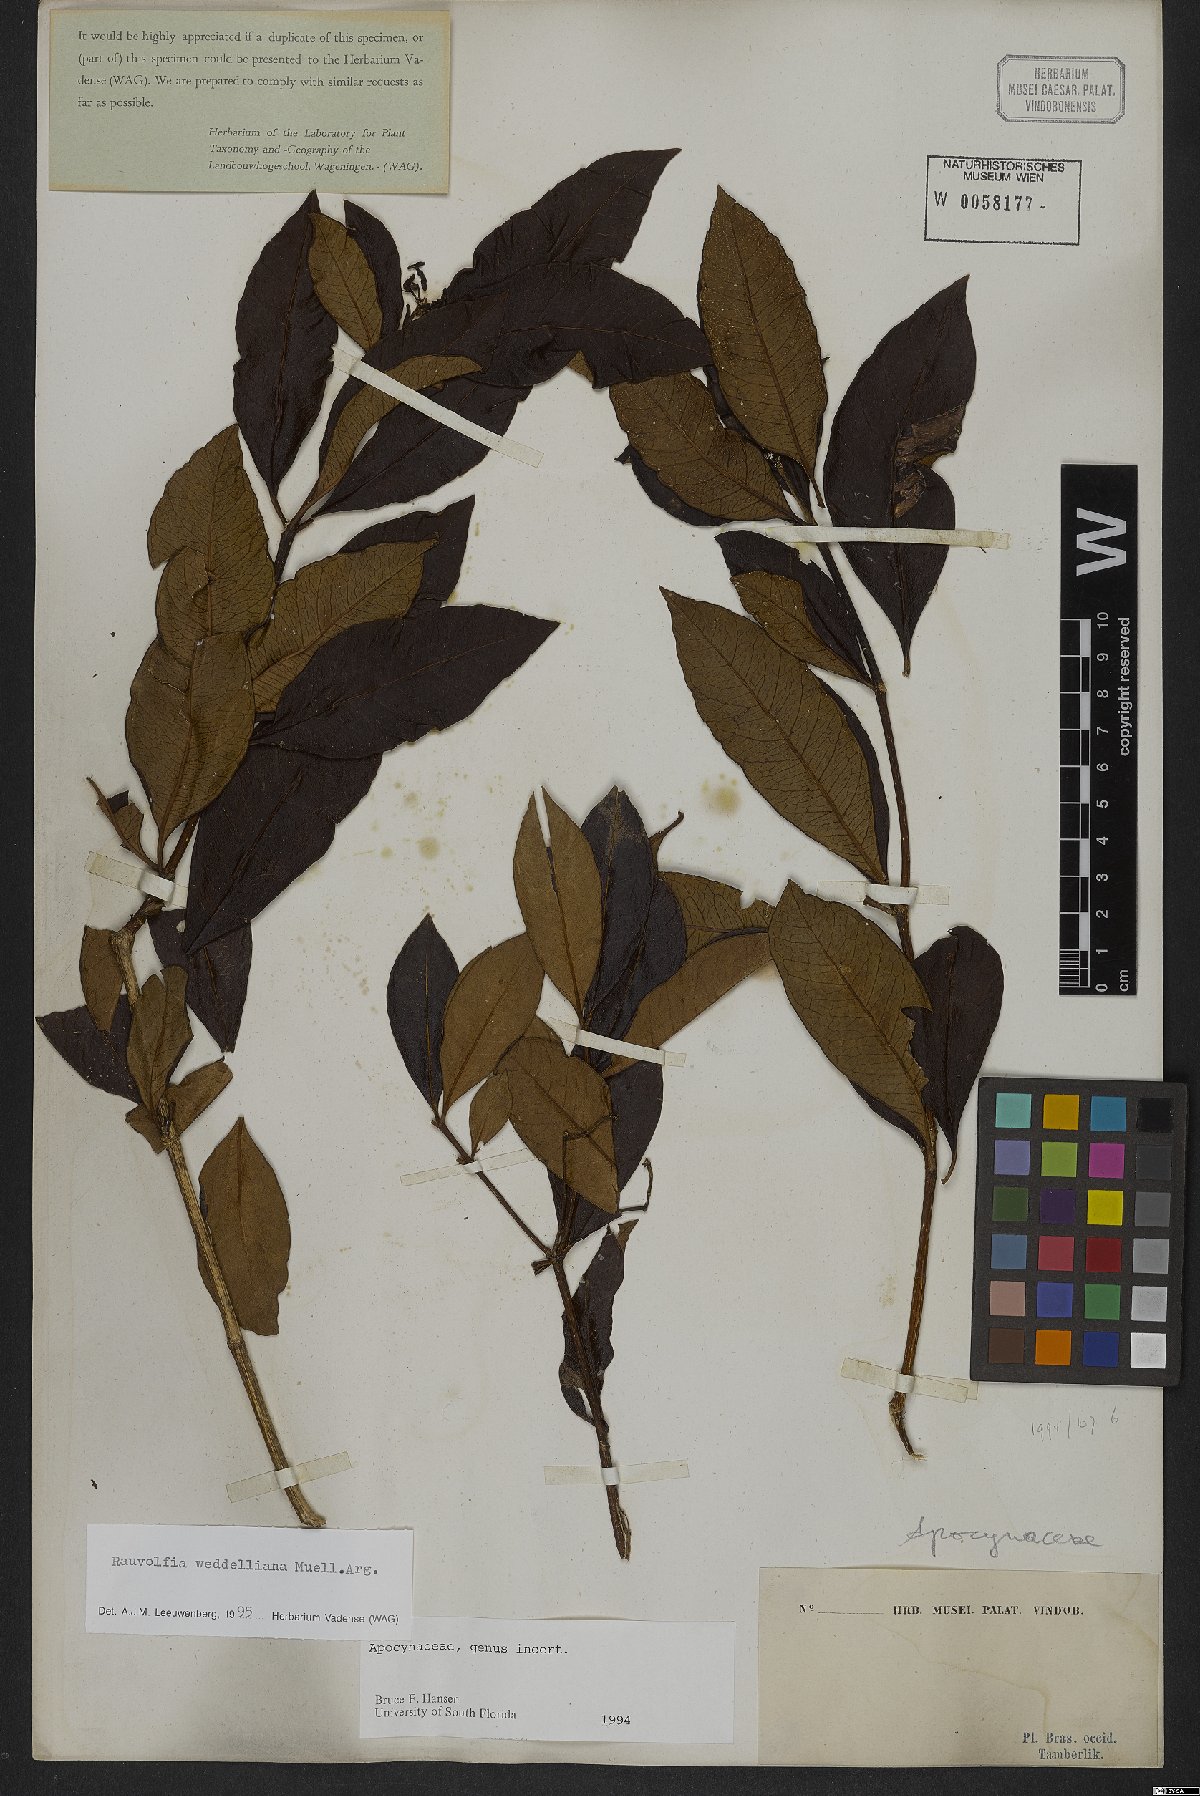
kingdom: Plantae
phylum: Tracheophyta
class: Magnoliopsida
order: Gentianales
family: Apocynaceae
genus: Rauvolfia
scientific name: Rauvolfia weddeliana
